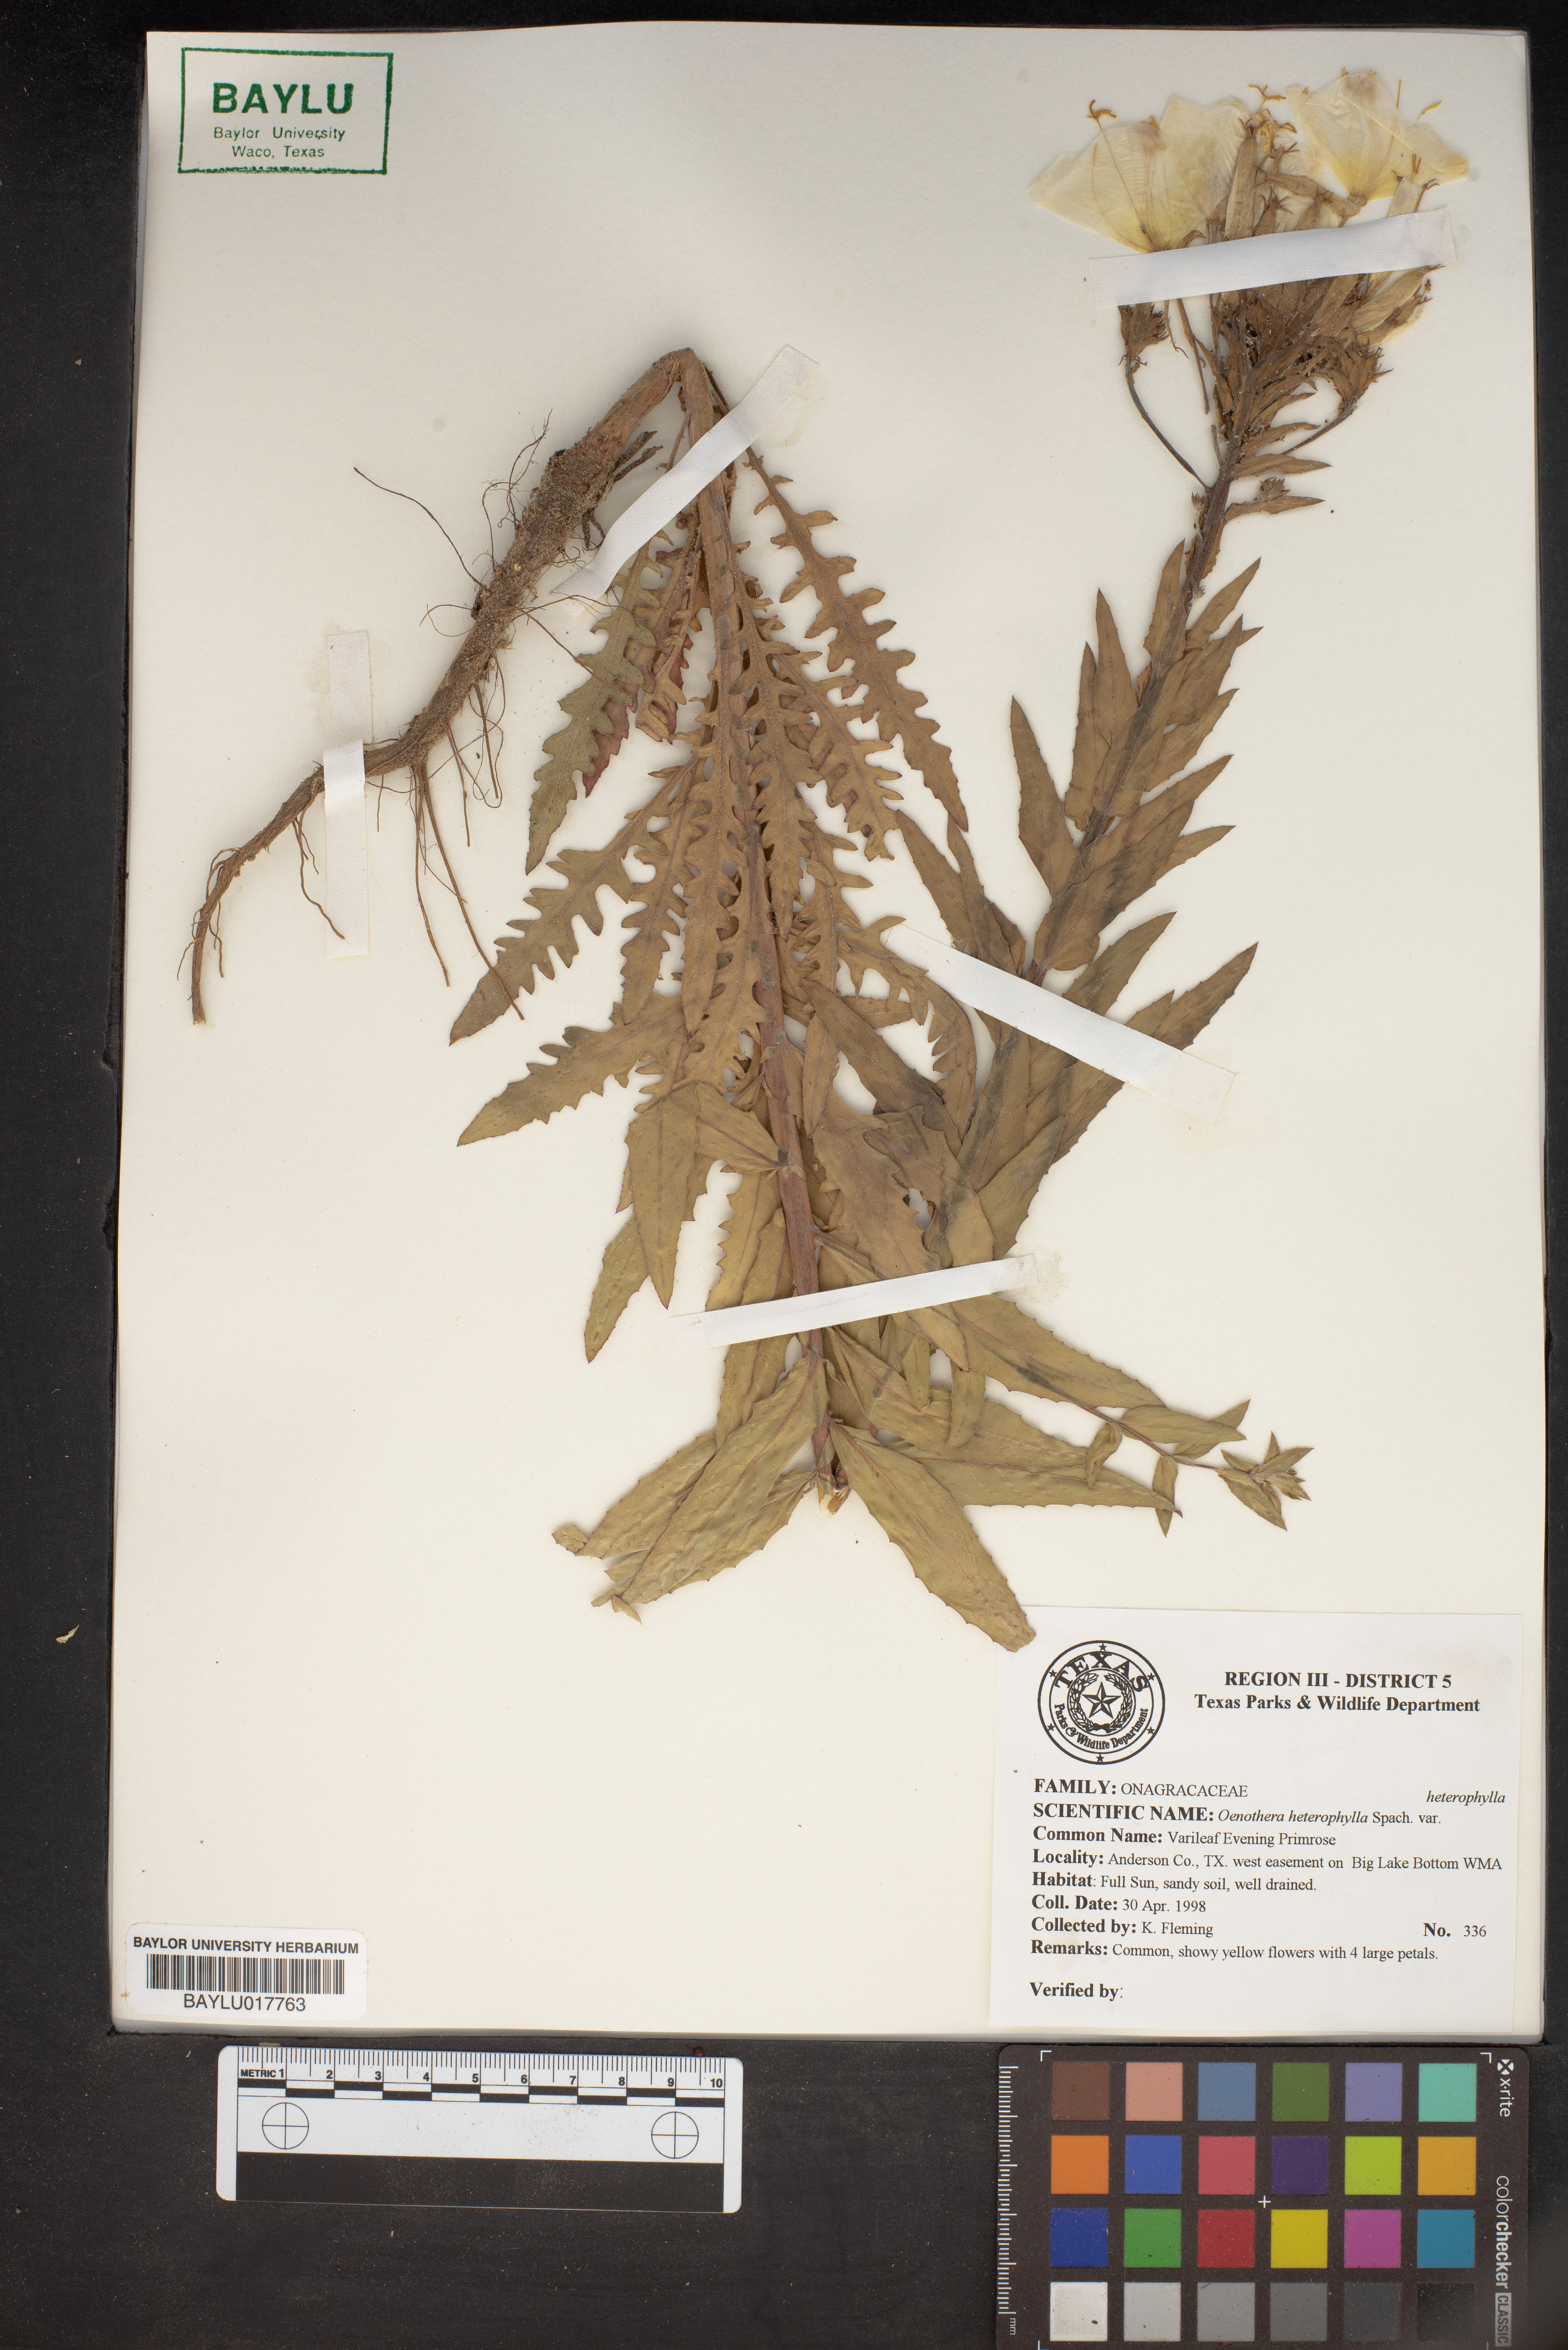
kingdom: Plantae
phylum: Tracheophyta
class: Magnoliopsida
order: Myrtales
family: Onagraceae
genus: Camissonia
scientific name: Camissonia dentata
